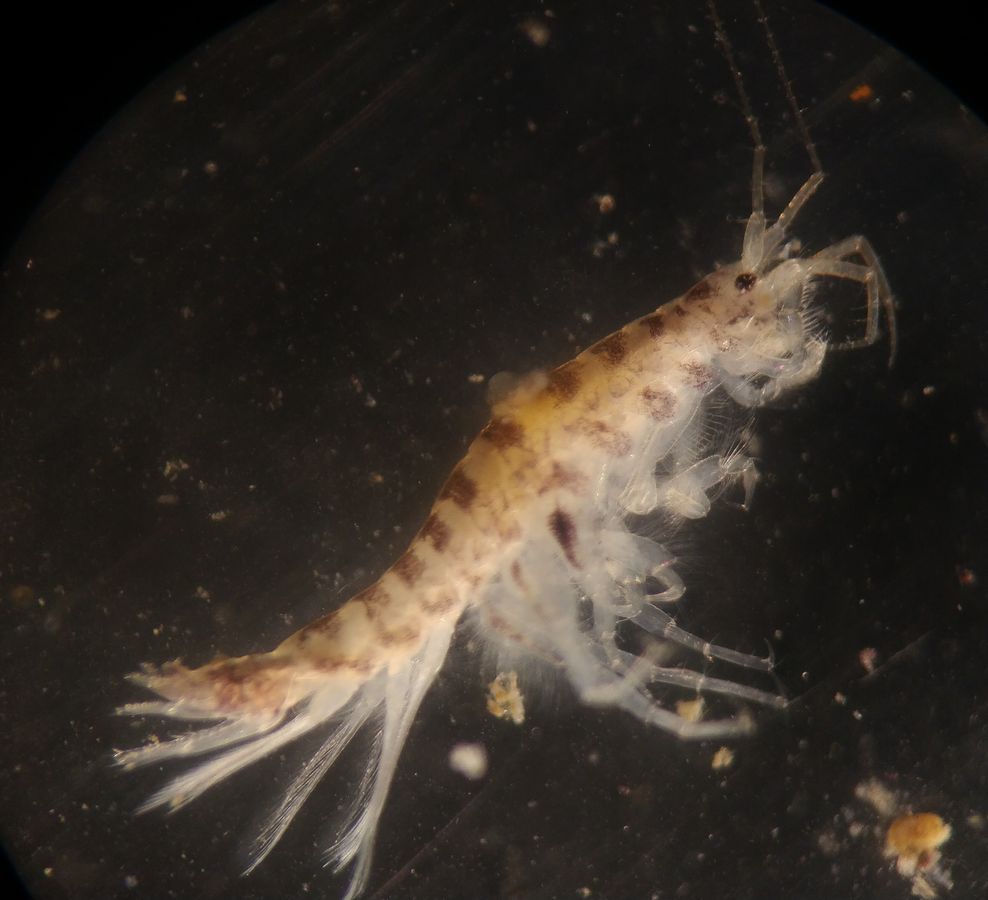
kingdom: Animalia
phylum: Arthropoda
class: Malacostraca
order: Amphipoda
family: Corophiidae
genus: Crassicorophium
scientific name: Crassicorophium bonellii
